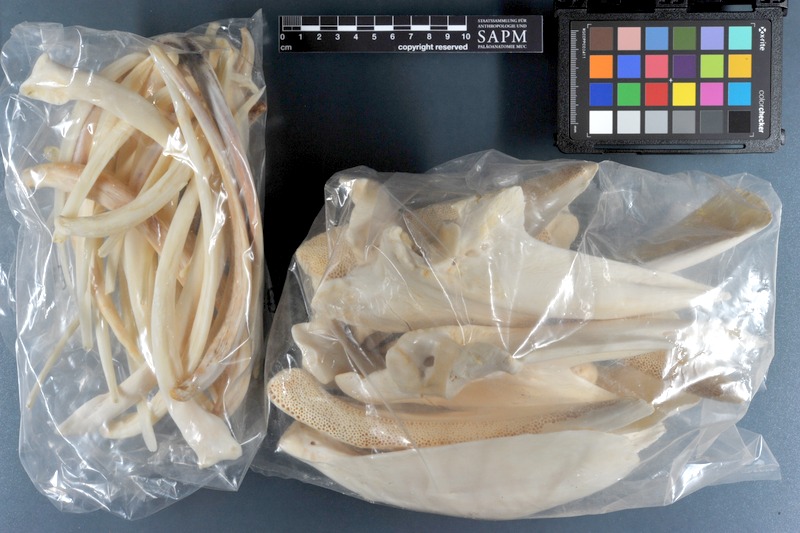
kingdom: Animalia
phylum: Chordata
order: Perciformes
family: Serranidae
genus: Epinephelus
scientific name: Epinephelus marginatus
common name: Dusky grouper
